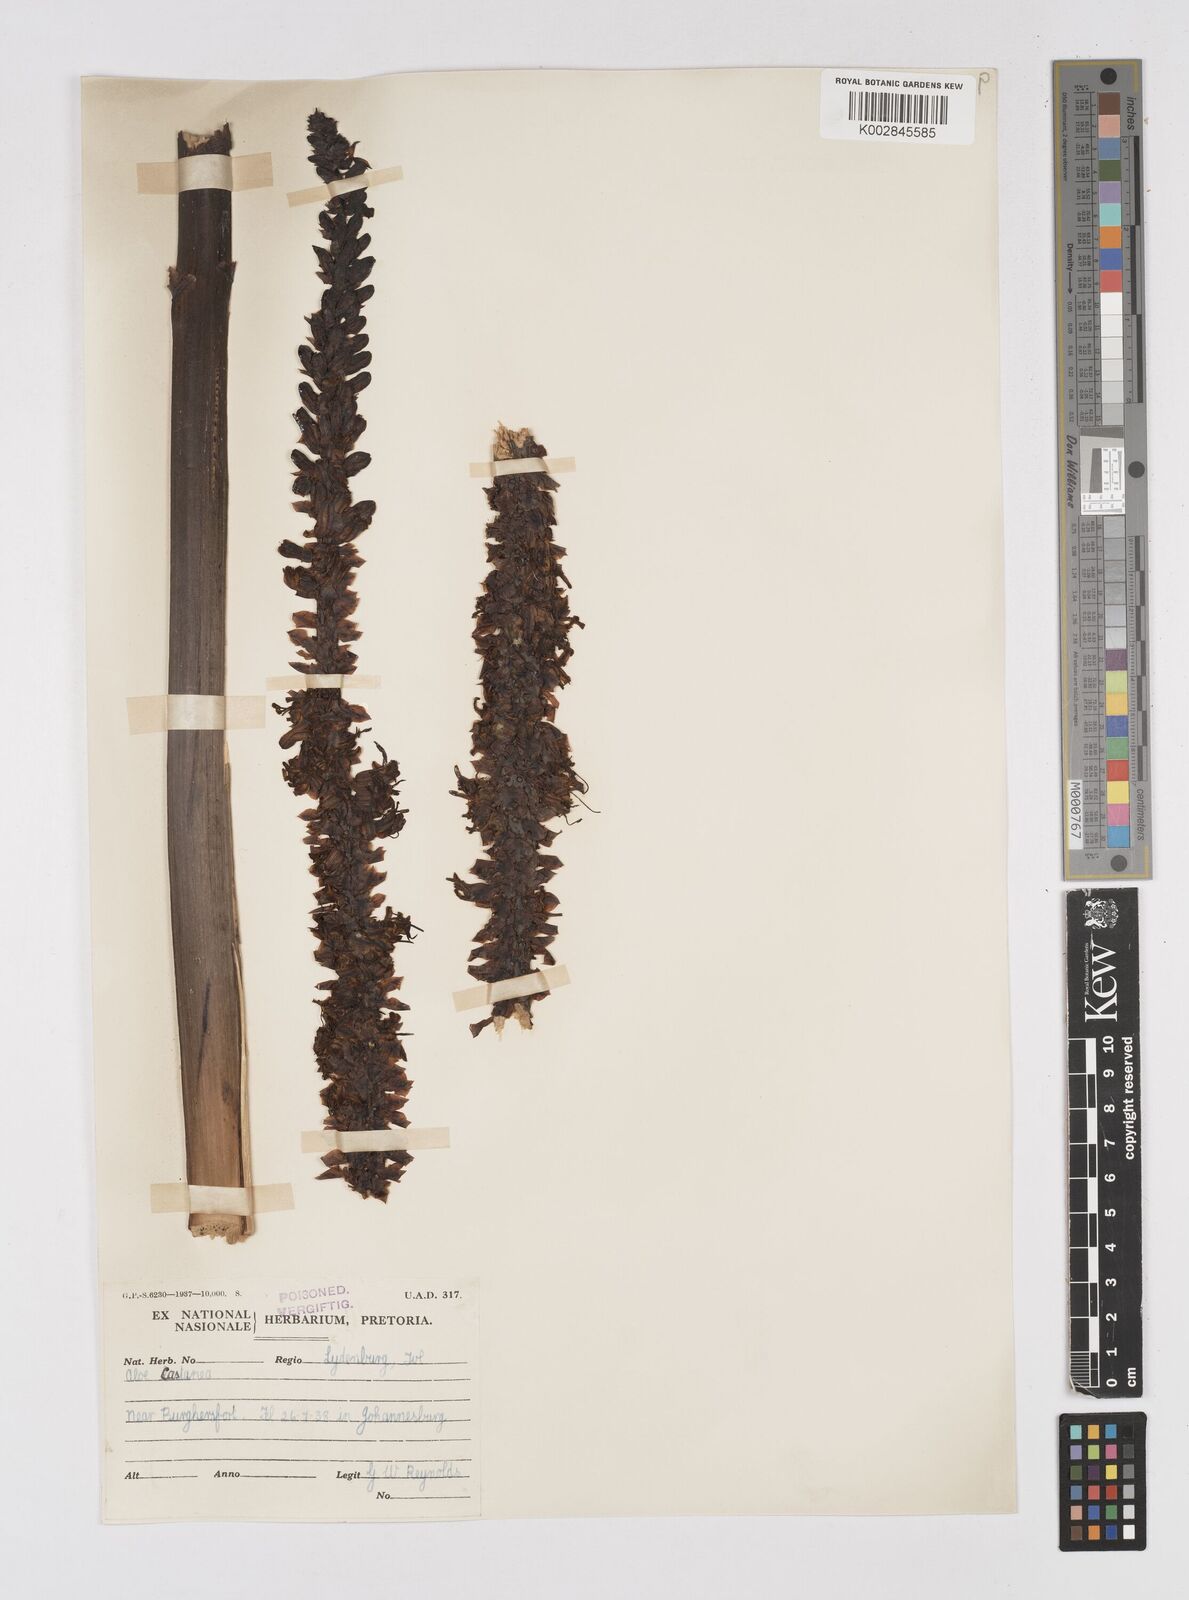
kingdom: Plantae
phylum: Tracheophyta
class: Liliopsida
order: Asparagales
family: Asphodelaceae
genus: Aloe
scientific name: Aloe castanea
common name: Cat's-tail aloe
